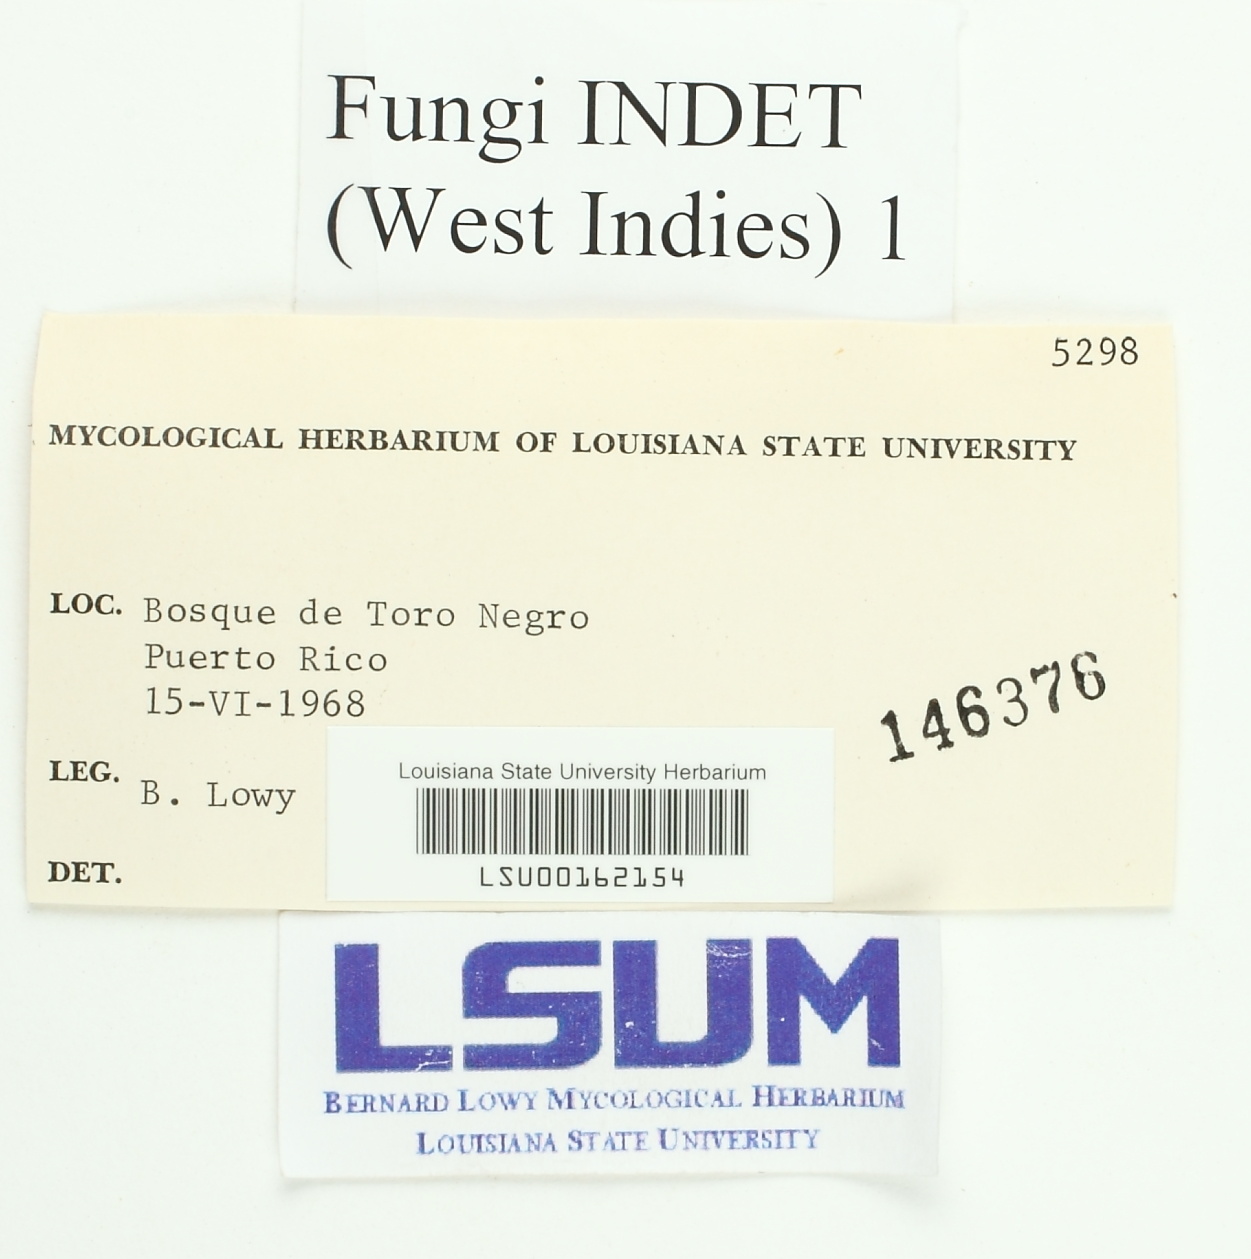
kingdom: Fungi
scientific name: Fungi
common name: Fungi
